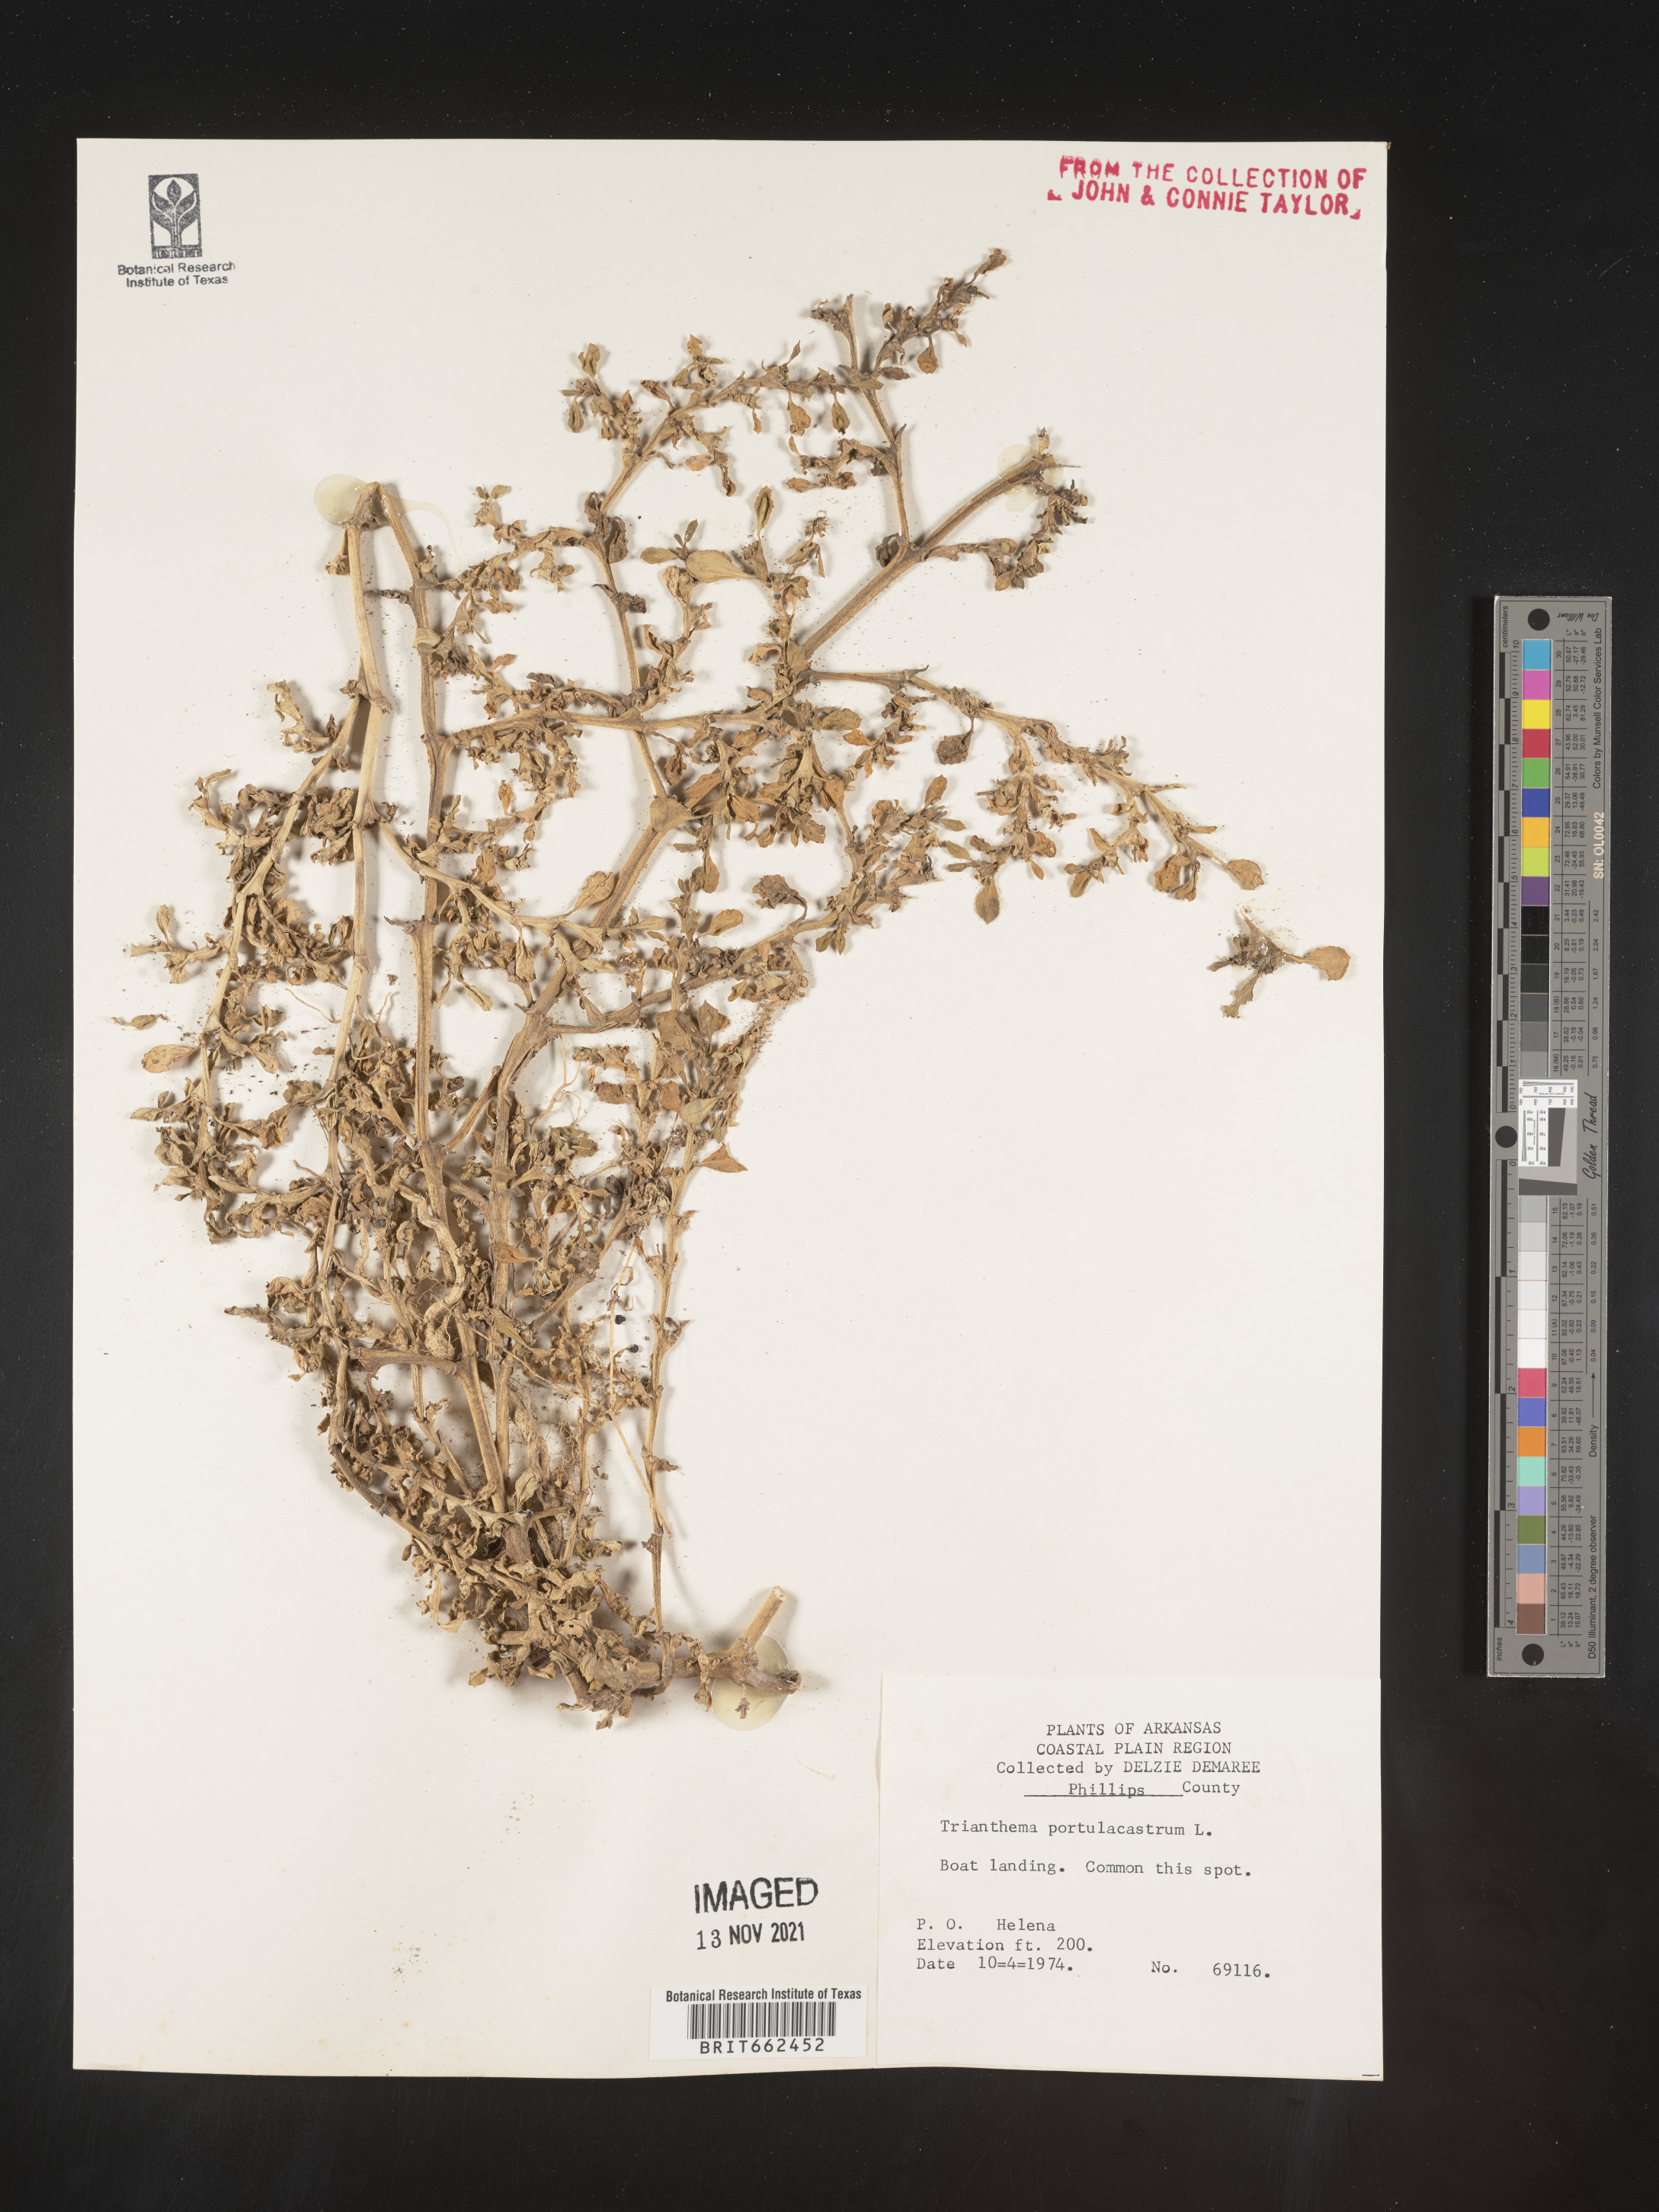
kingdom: Plantae
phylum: Tracheophyta
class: Magnoliopsida
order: Caryophyllales
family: Aizoaceae
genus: Trianthema
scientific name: Trianthema
